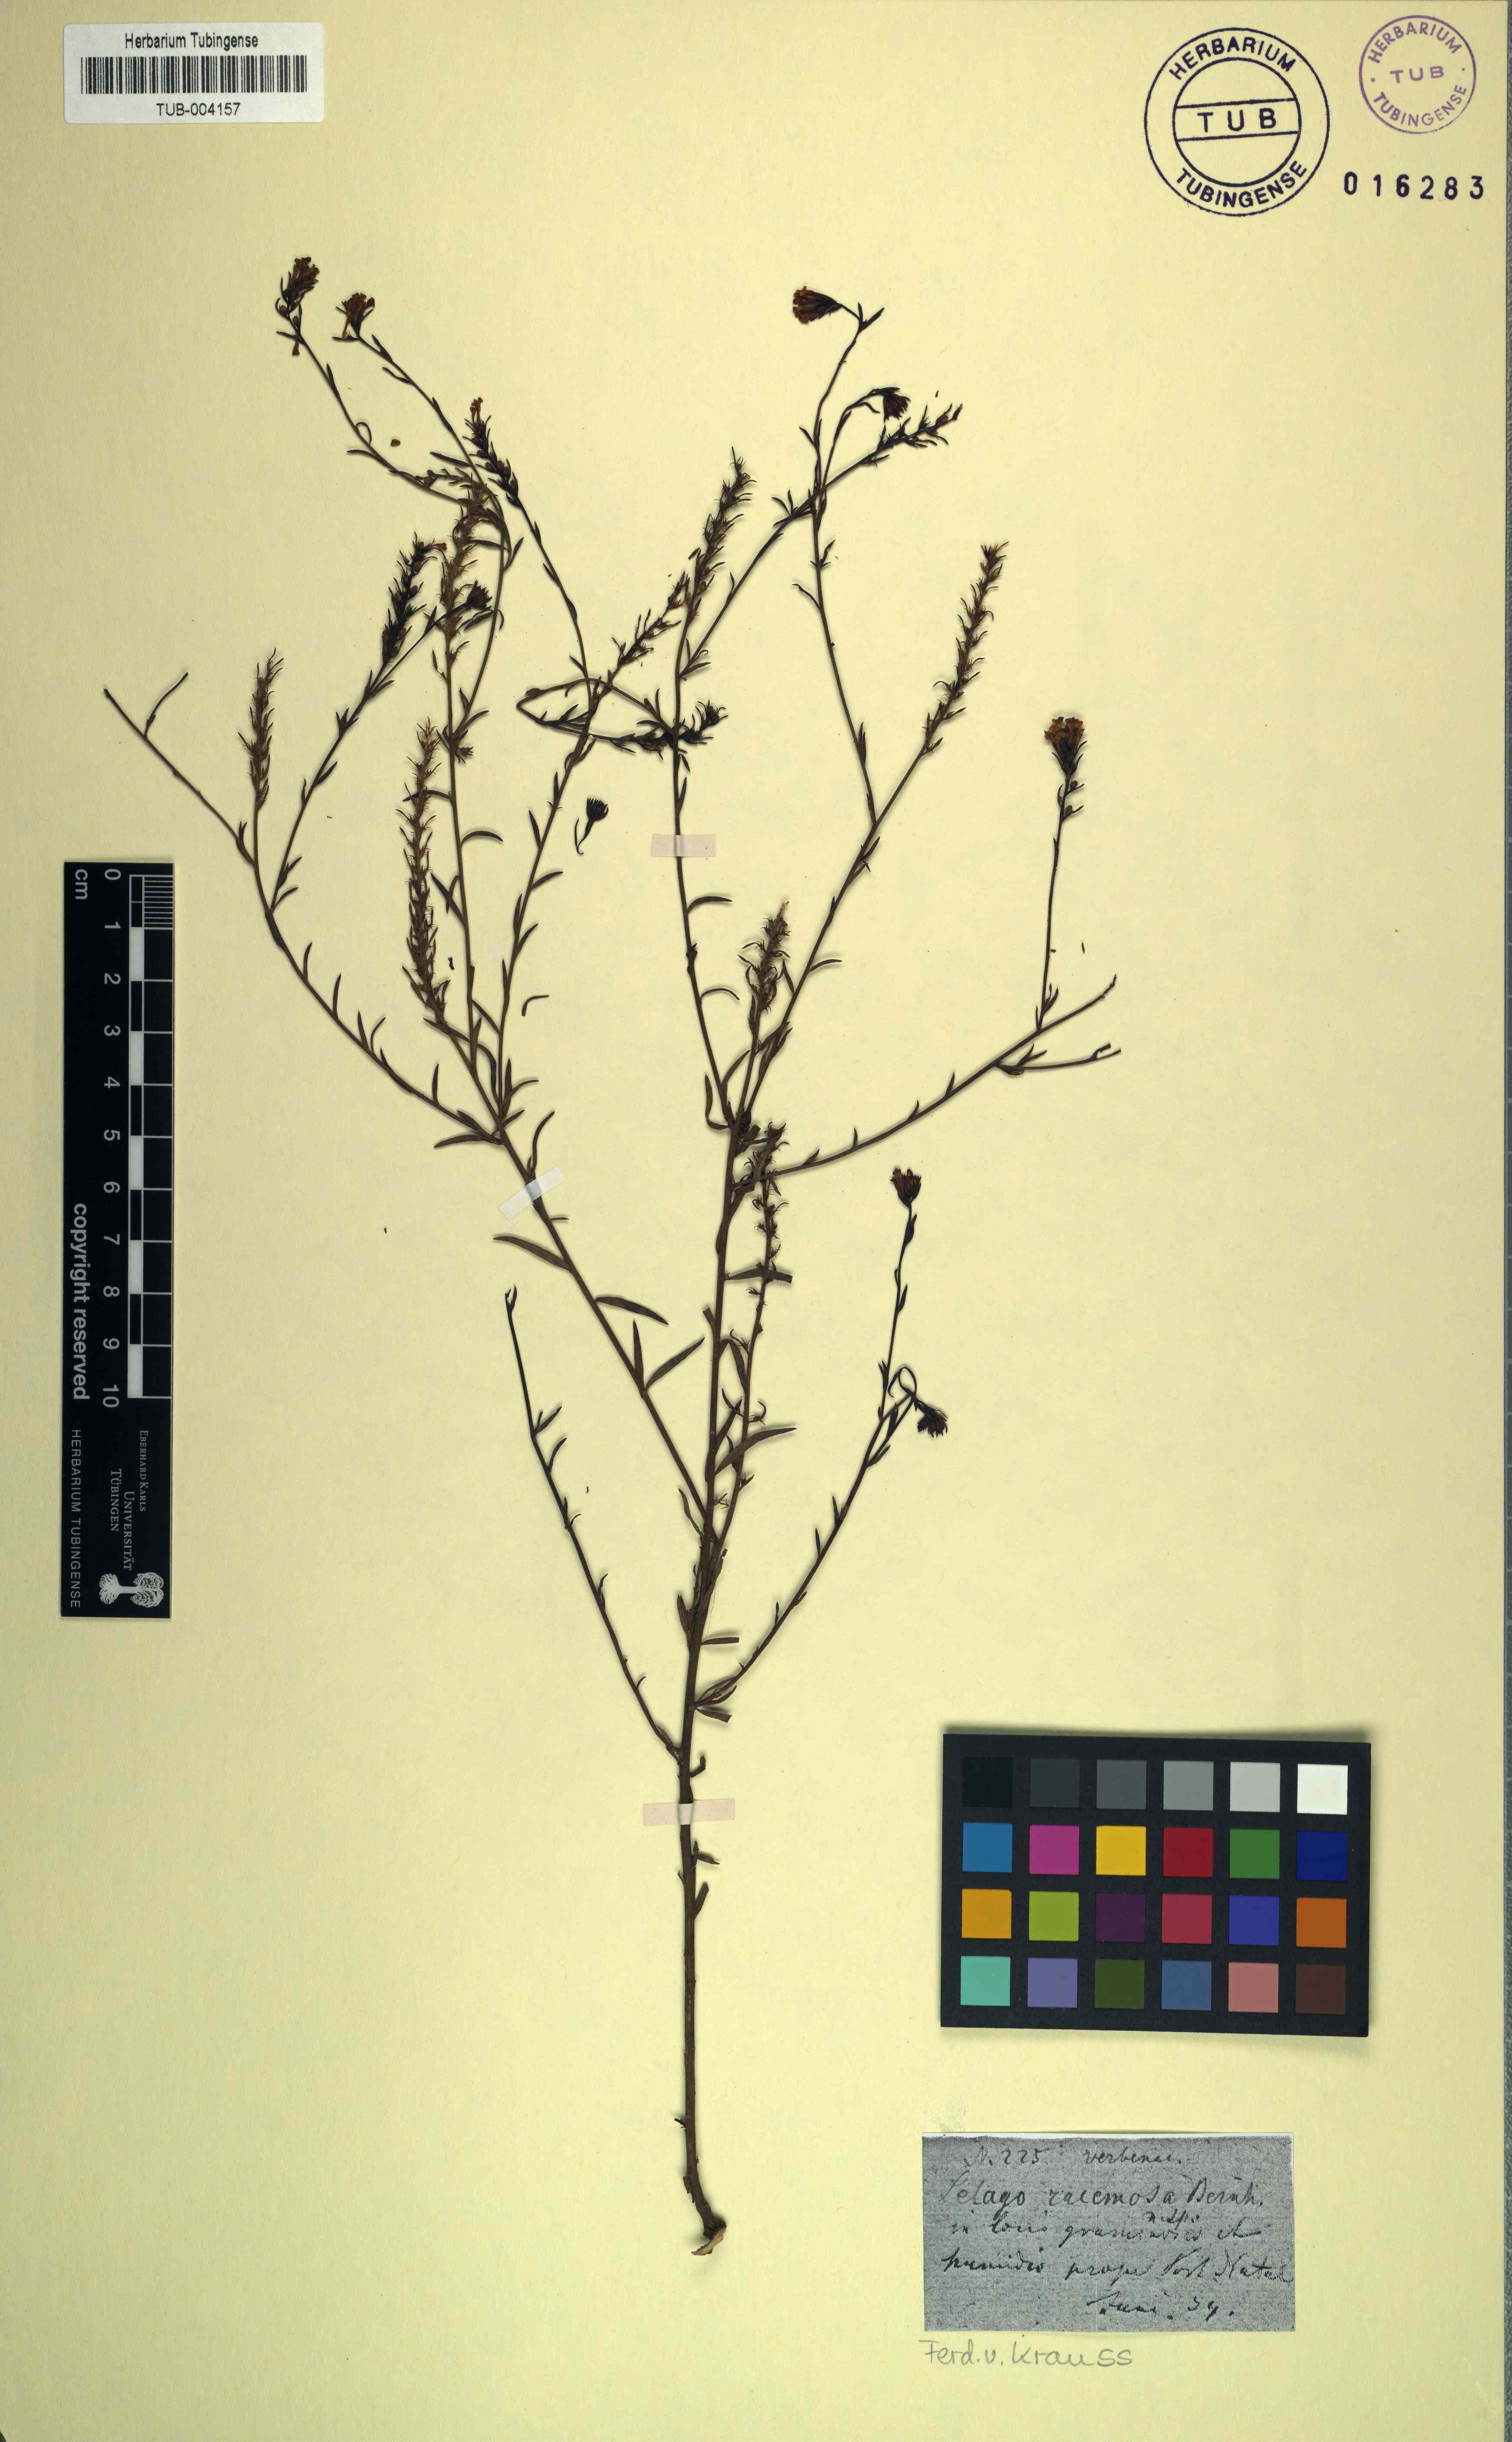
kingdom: Plantae
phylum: Tracheophyta
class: Magnoliopsida
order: Lamiales
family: Scrophulariaceae
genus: Selago
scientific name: Selago trinervia
